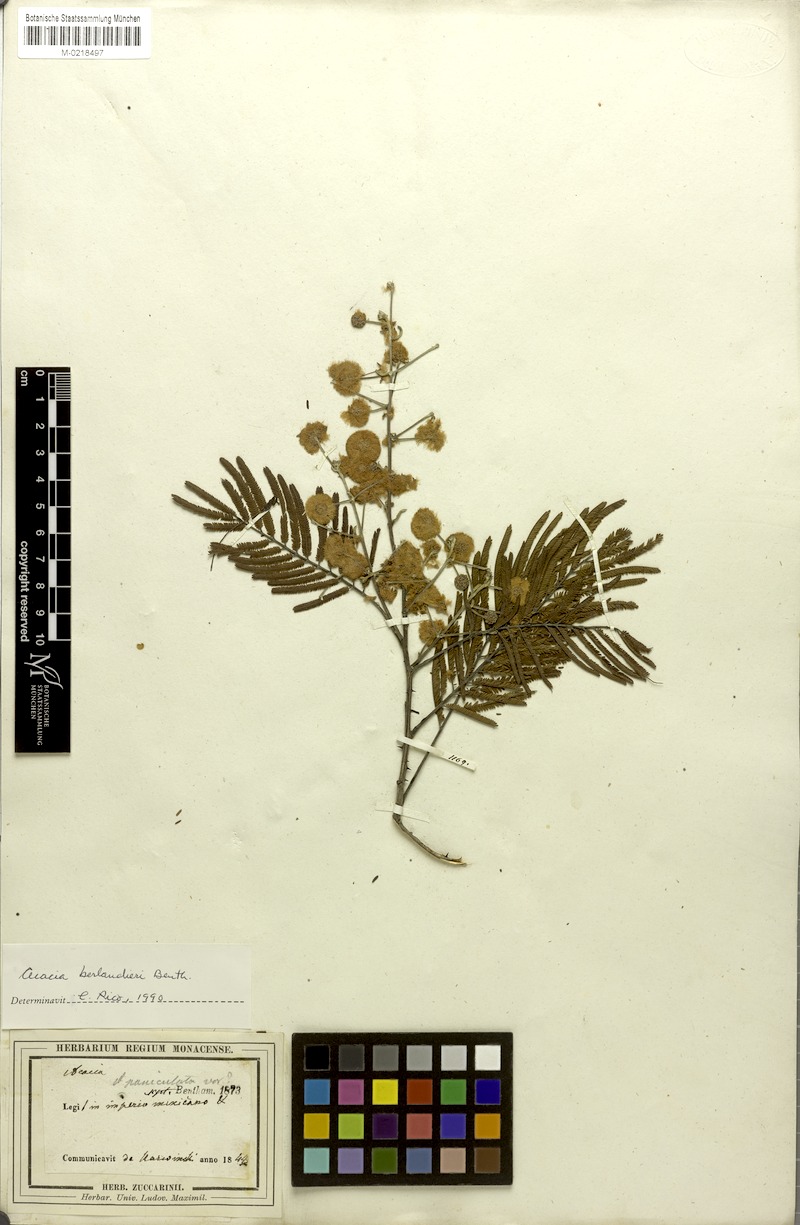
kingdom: Plantae
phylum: Tracheophyta
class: Magnoliopsida
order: Fabales
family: Fabaceae
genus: Senegalia
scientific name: Senegalia berlandieri
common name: Berlandier acacia
